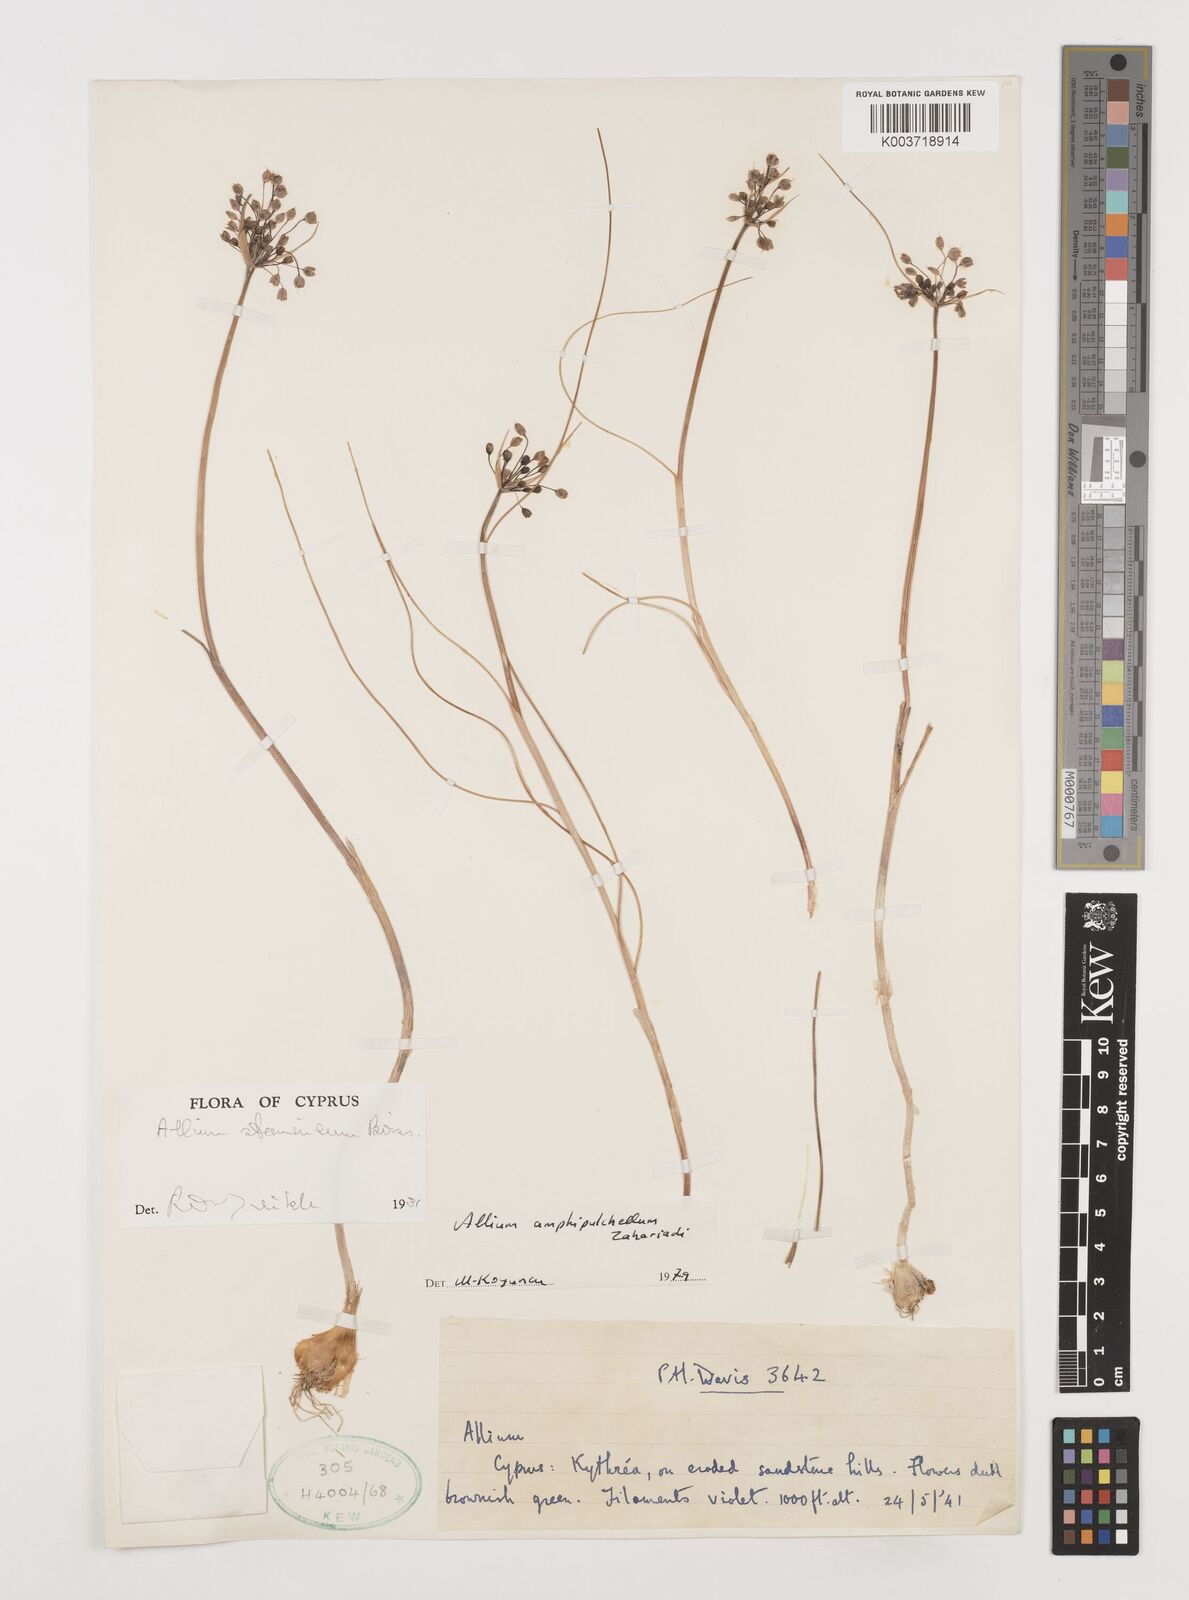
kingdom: Plantae
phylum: Tracheophyta
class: Liliopsida
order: Asparagales
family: Amaryllidaceae
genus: Allium
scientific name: Allium stamineum
